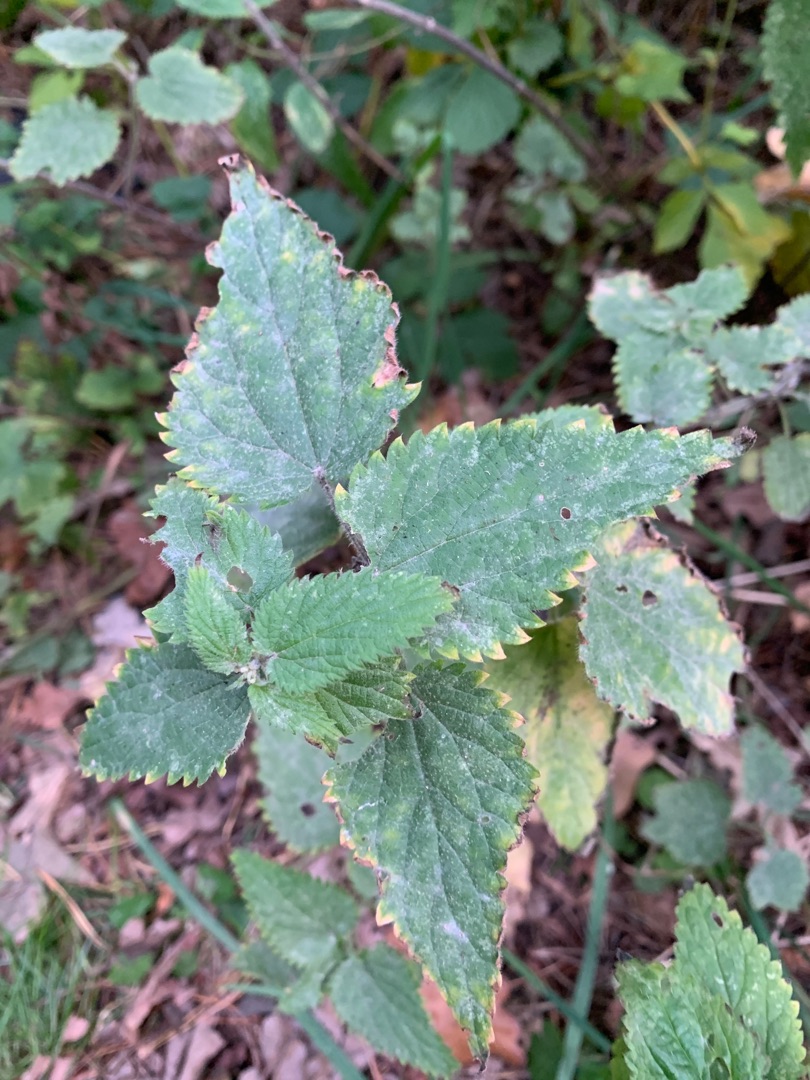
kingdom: Plantae
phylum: Tracheophyta
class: Magnoliopsida
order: Rosales
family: Urticaceae
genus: Urtica
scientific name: Urtica dioica
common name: Stor nælde
